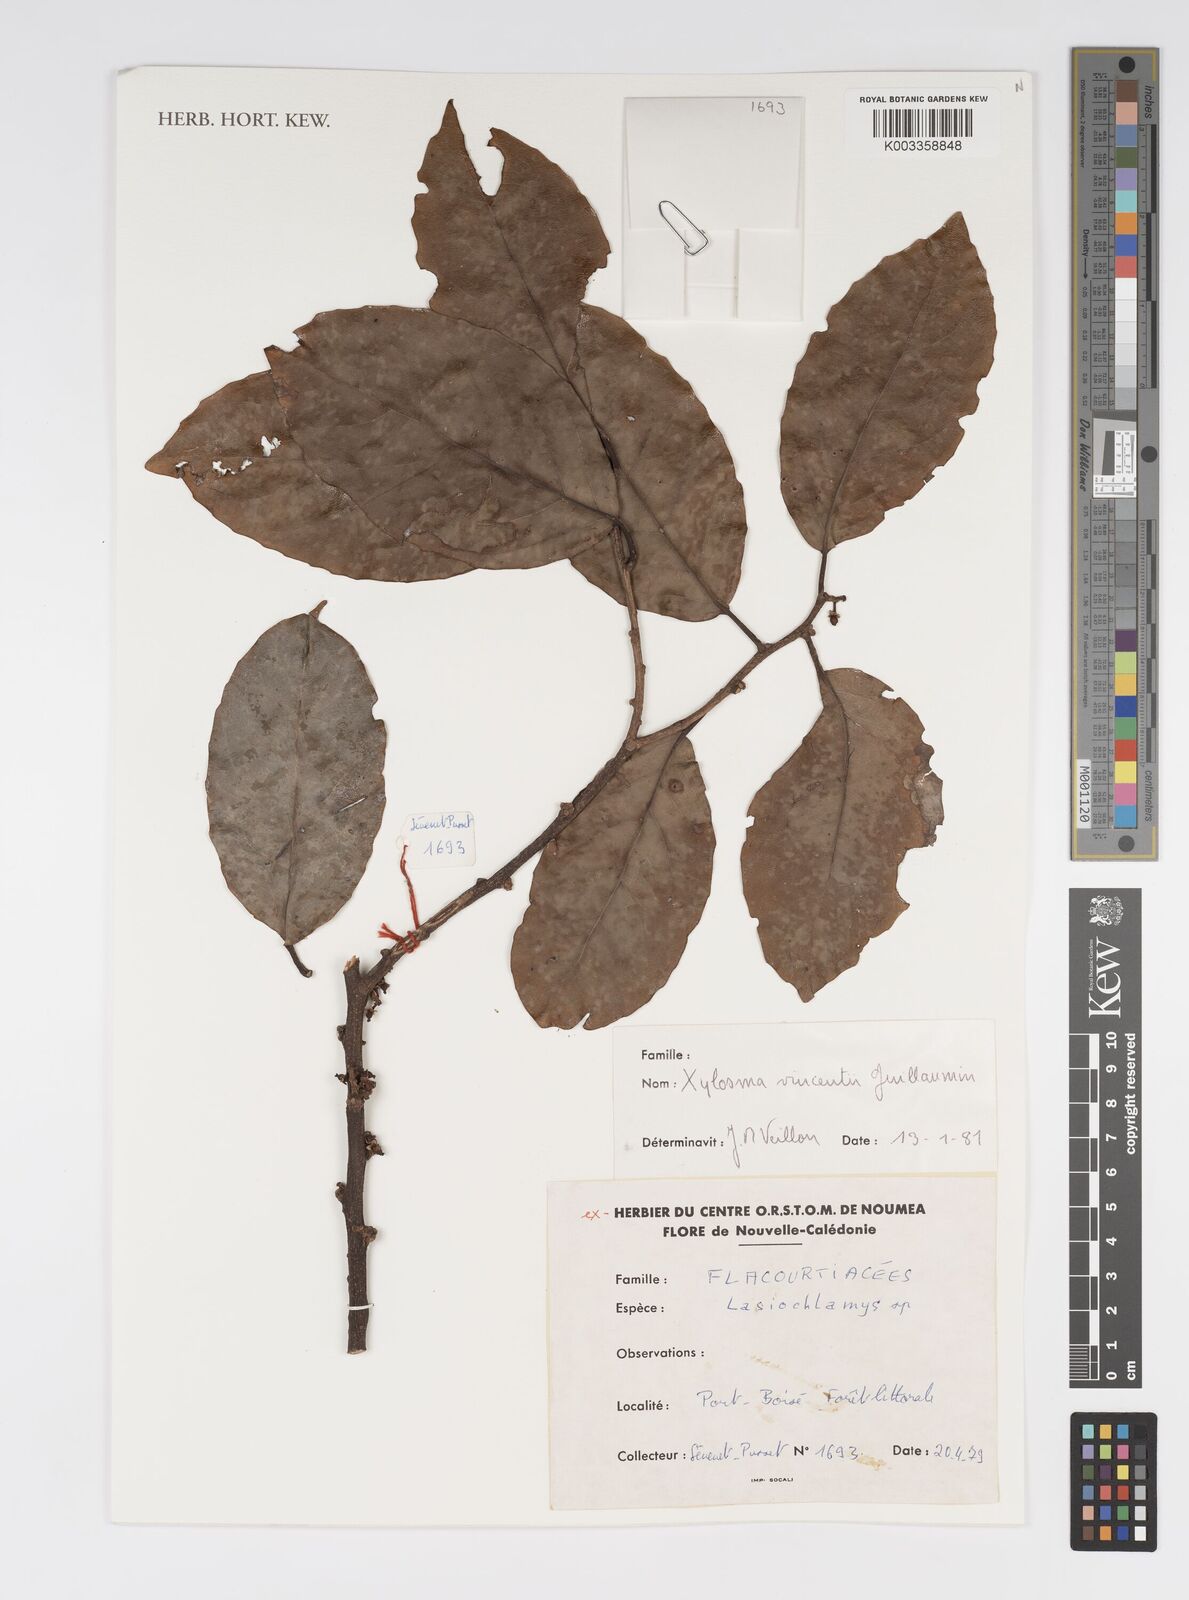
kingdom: Plantae
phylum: Tracheophyta
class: Magnoliopsida
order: Malpighiales
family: Salicaceae
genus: Xylosma
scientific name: Xylosma vincentii
